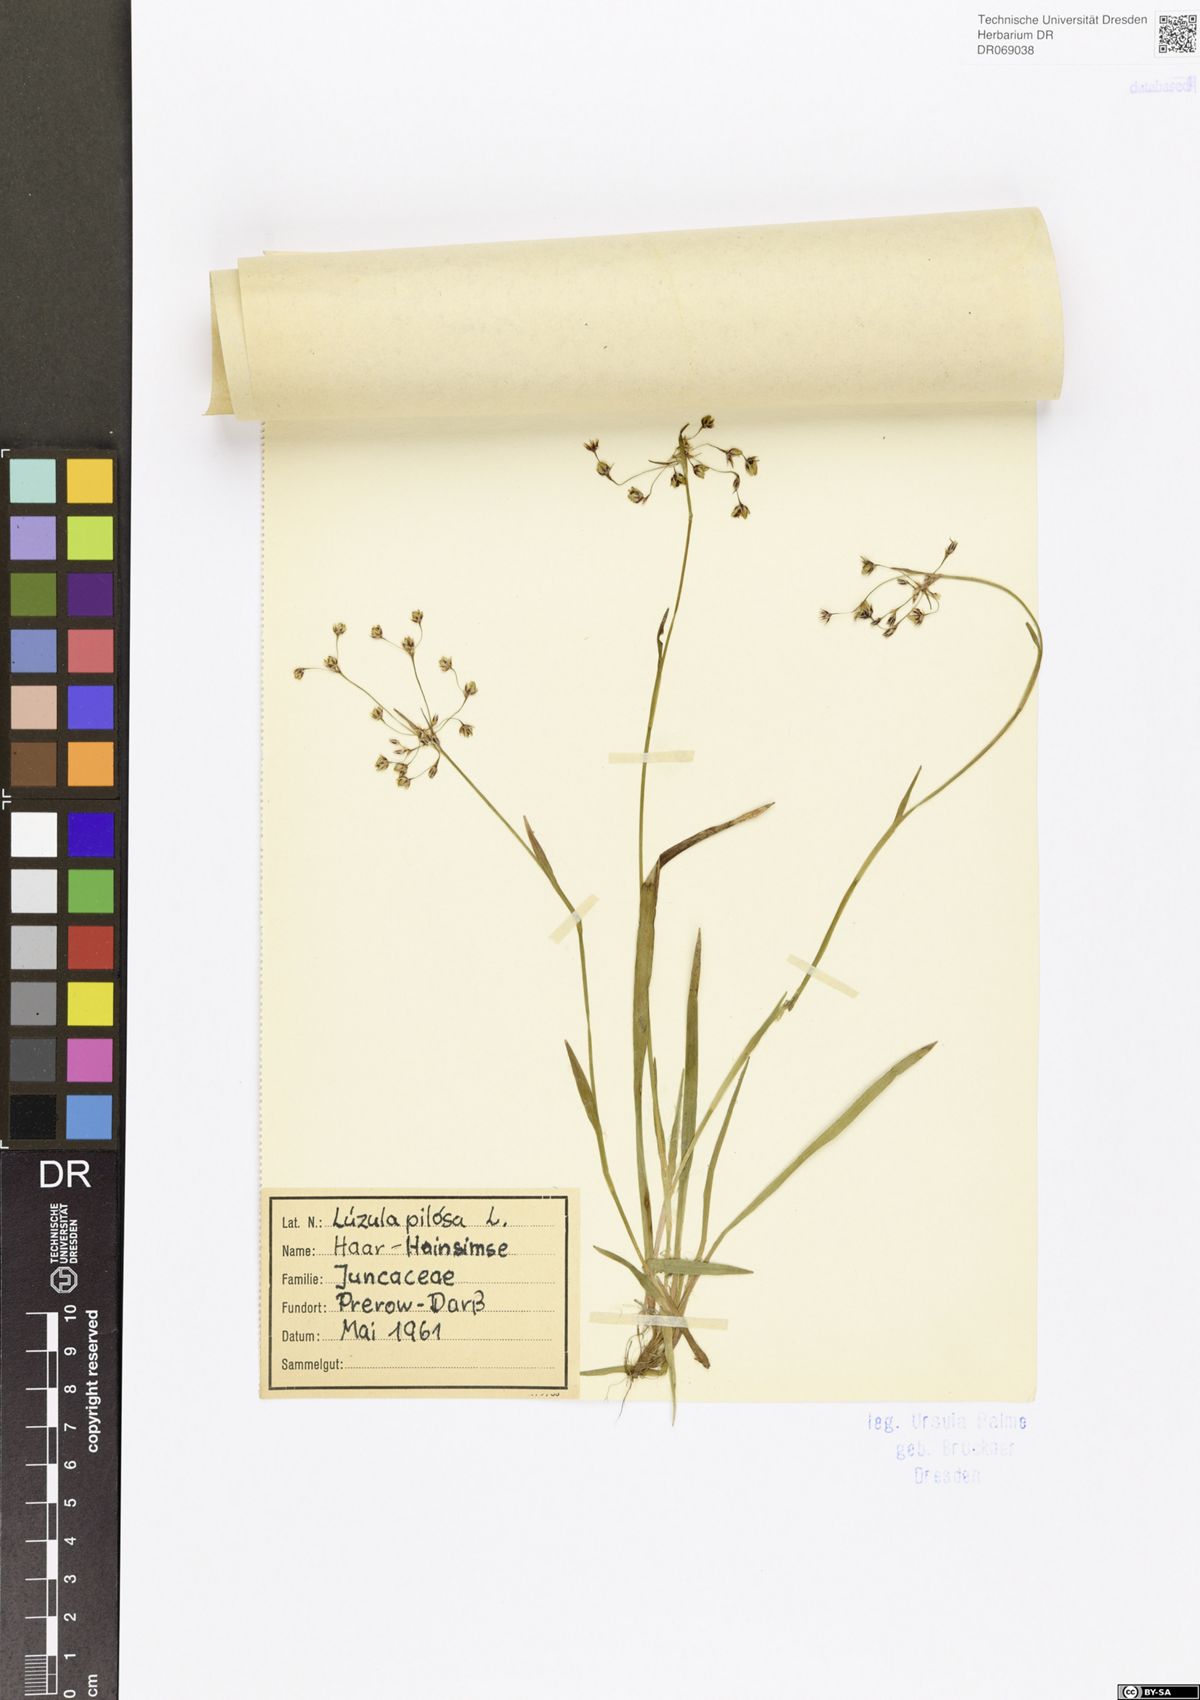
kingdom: Plantae
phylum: Tracheophyta
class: Liliopsida
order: Poales
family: Juncaceae
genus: Luzula
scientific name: Luzula pilosa
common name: Hairy wood-rush
